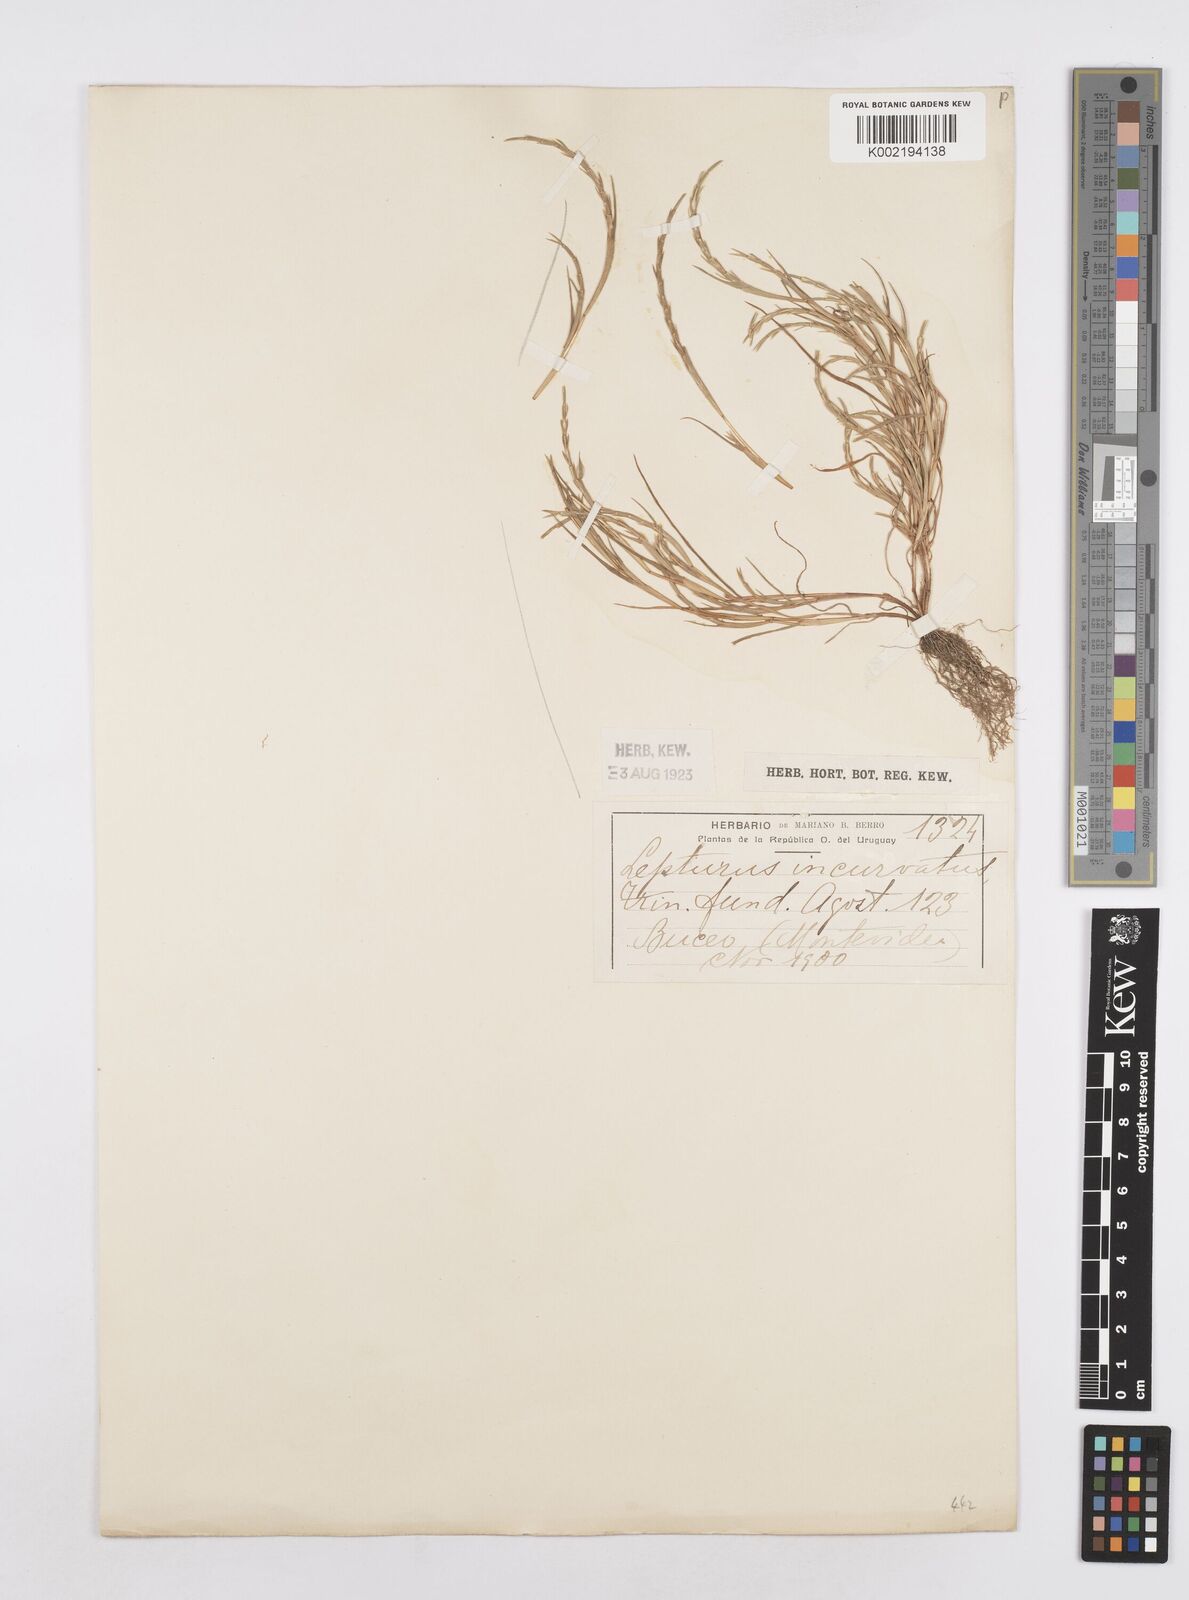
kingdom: Plantae
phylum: Tracheophyta
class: Liliopsida
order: Poales
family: Poaceae
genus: Parapholis
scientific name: Parapholis incurva
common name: Curved sicklegrass
